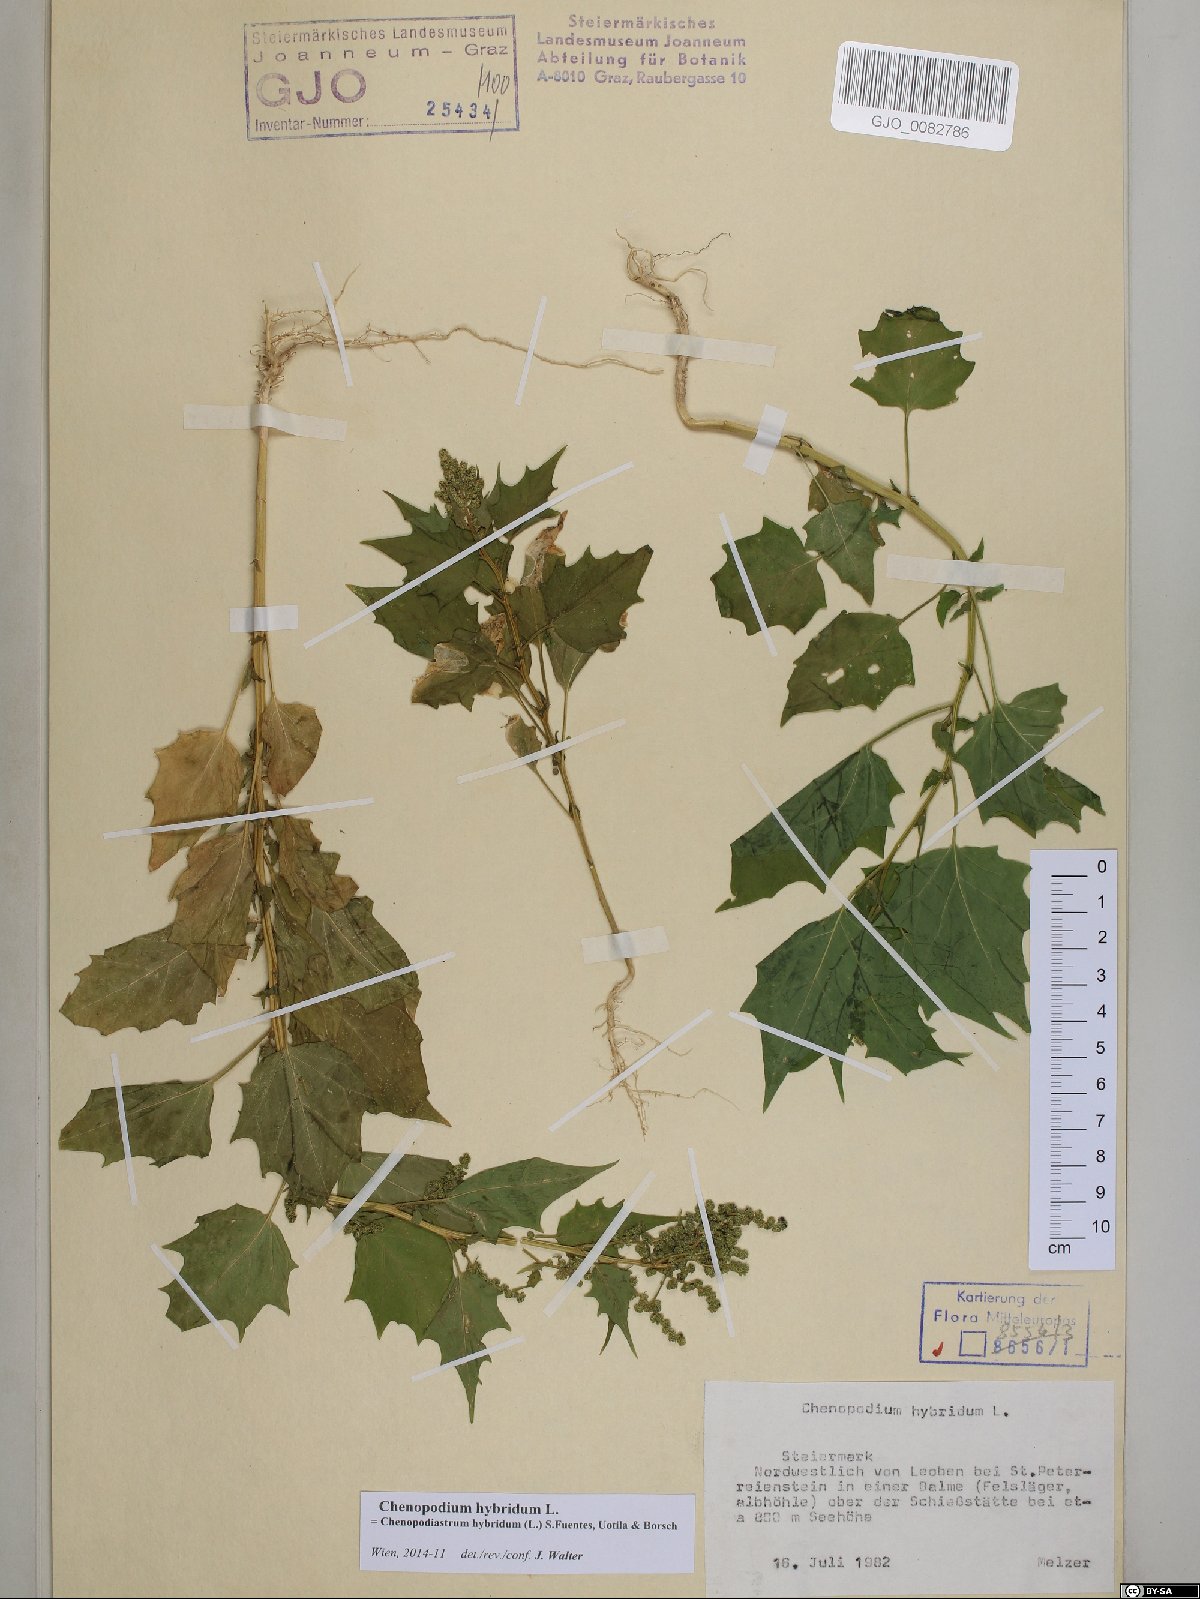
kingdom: Plantae
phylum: Tracheophyta
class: Magnoliopsida
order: Caryophyllales
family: Amaranthaceae
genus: Chenopodiastrum
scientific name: Chenopodiastrum hybridum
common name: Mapleleaf goosefoot
